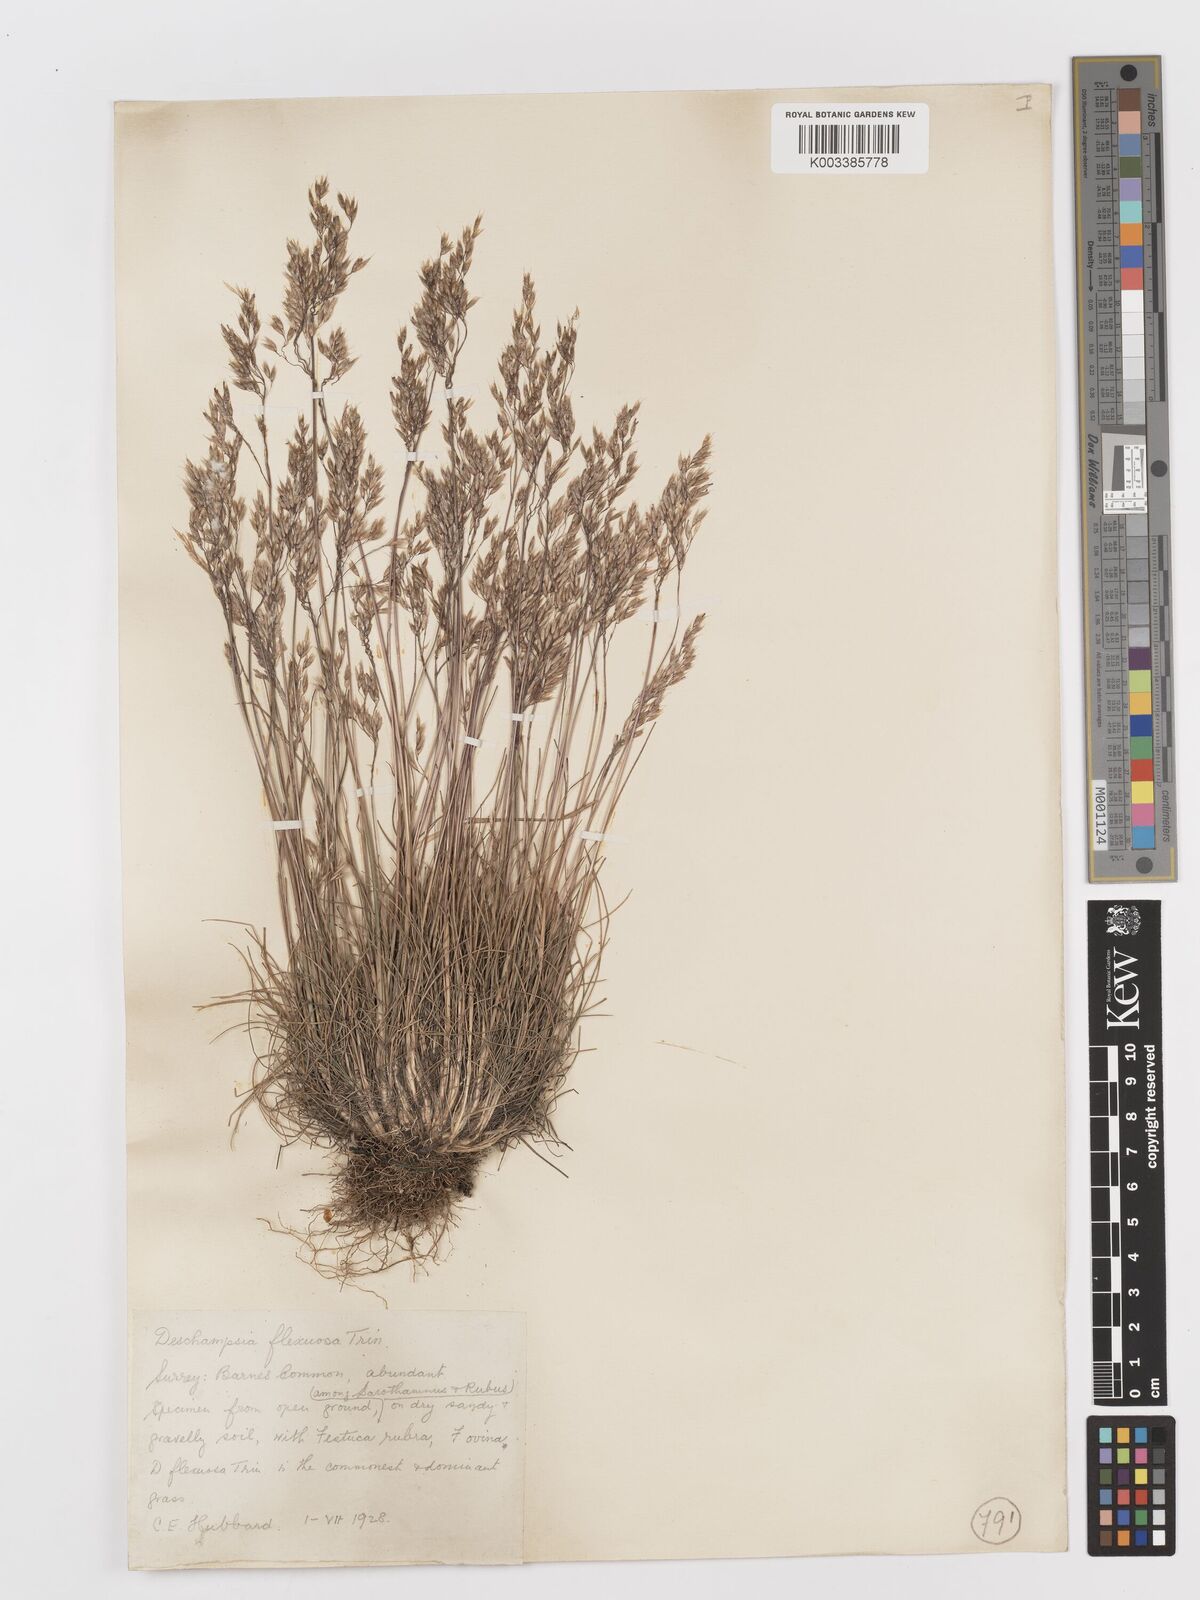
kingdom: Plantae
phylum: Tracheophyta
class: Liliopsida
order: Poales
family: Poaceae
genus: Avenella
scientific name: Avenella flexuosa
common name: Wavy hairgrass
